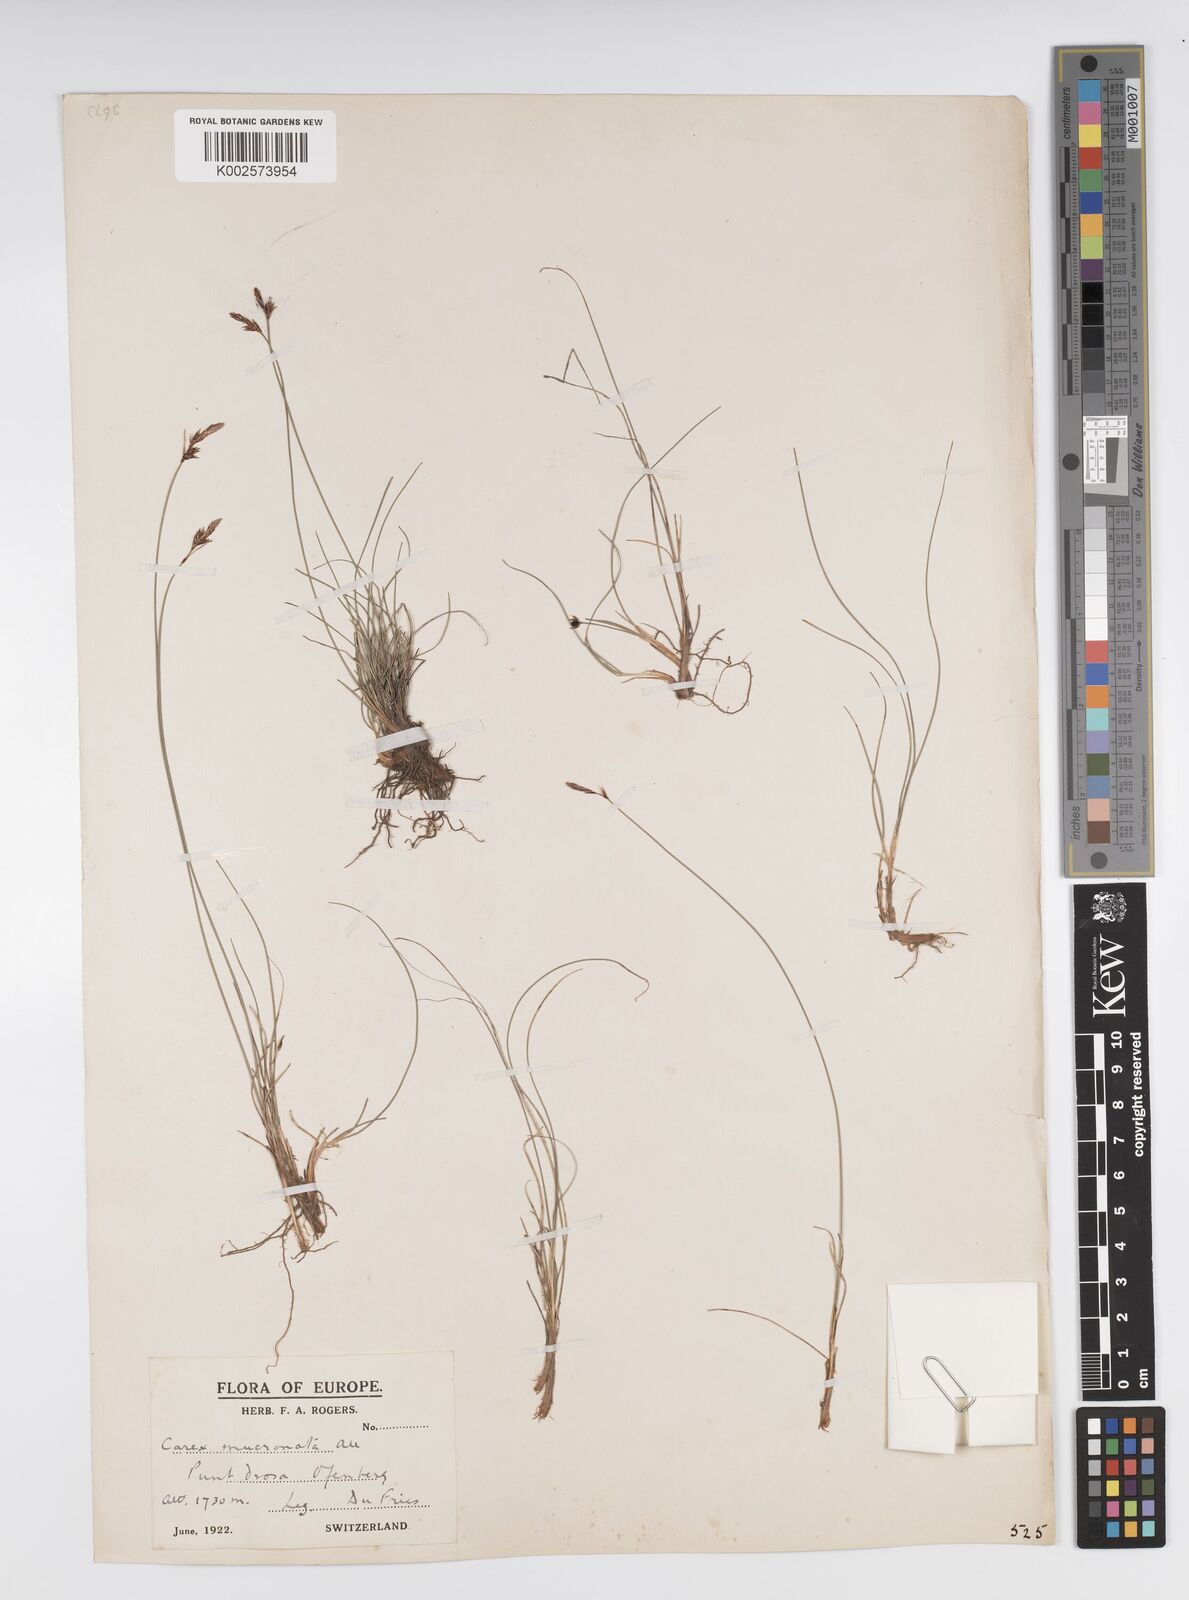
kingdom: Plantae
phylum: Tracheophyta
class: Liliopsida
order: Poales
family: Cyperaceae
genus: Carex
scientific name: Carex mucronata
